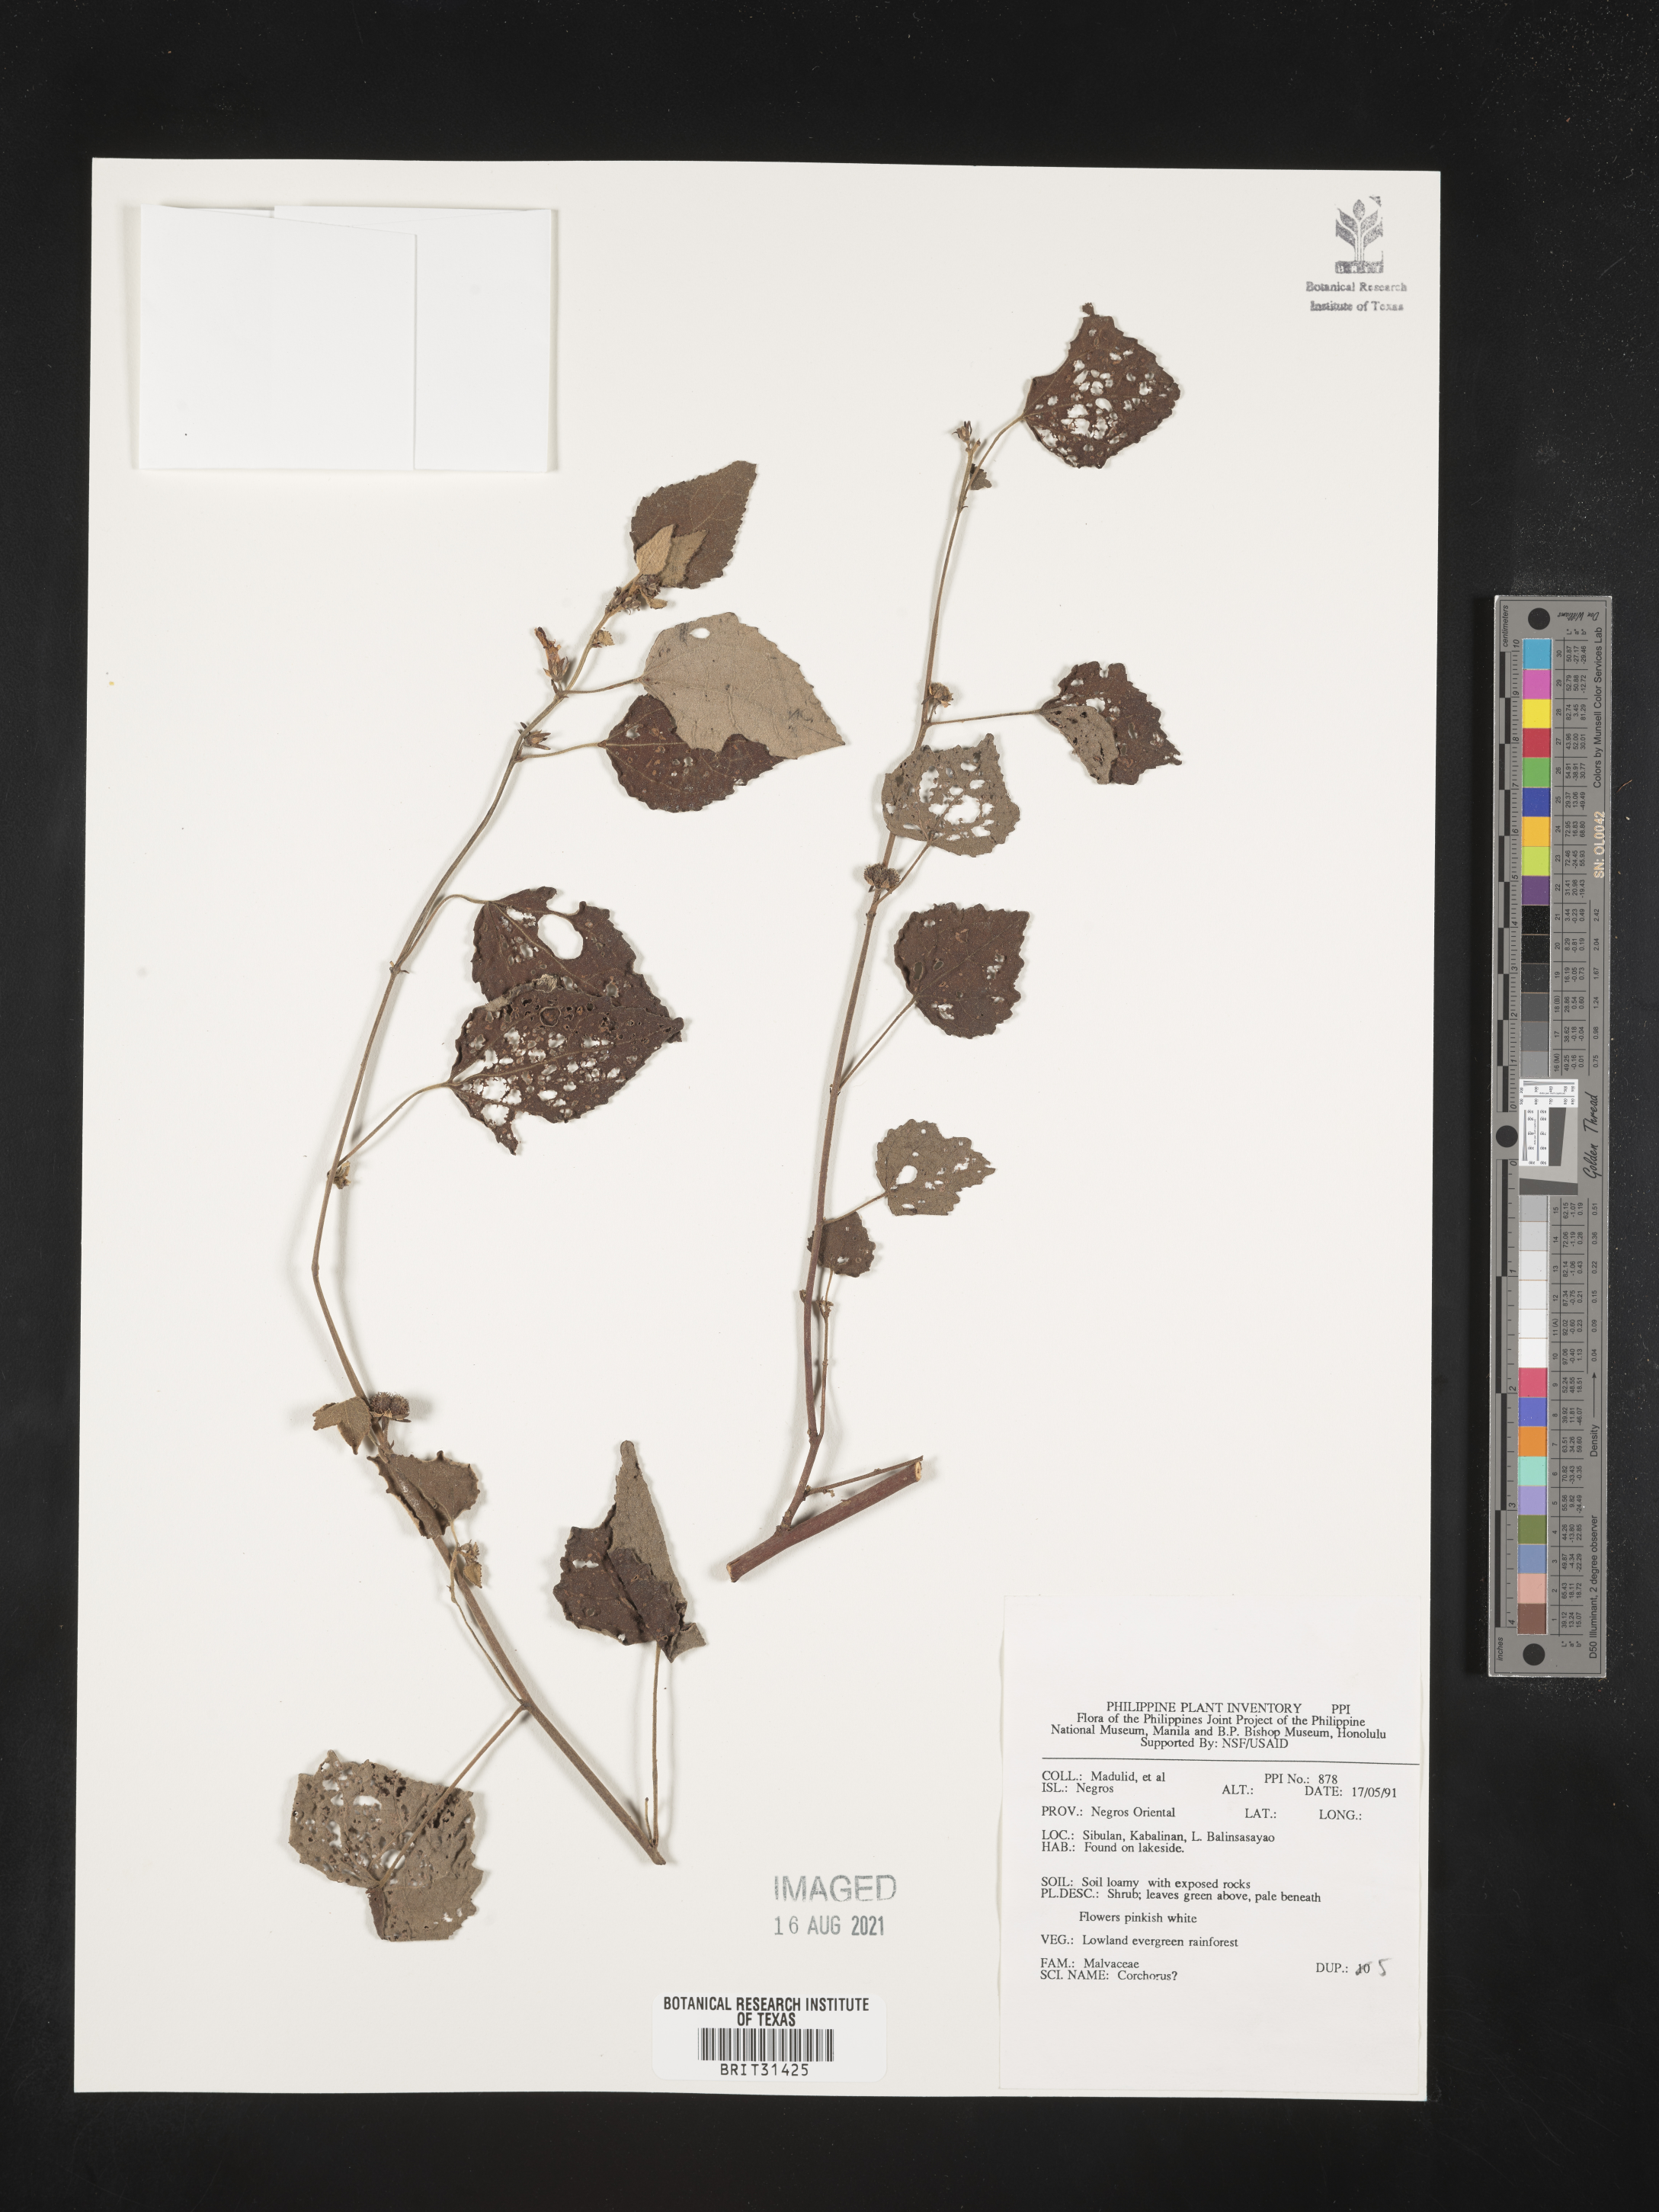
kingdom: Plantae
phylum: Tracheophyta
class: Magnoliopsida
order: Malvales
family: Malvaceae
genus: Corchorus
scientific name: Corchorus
